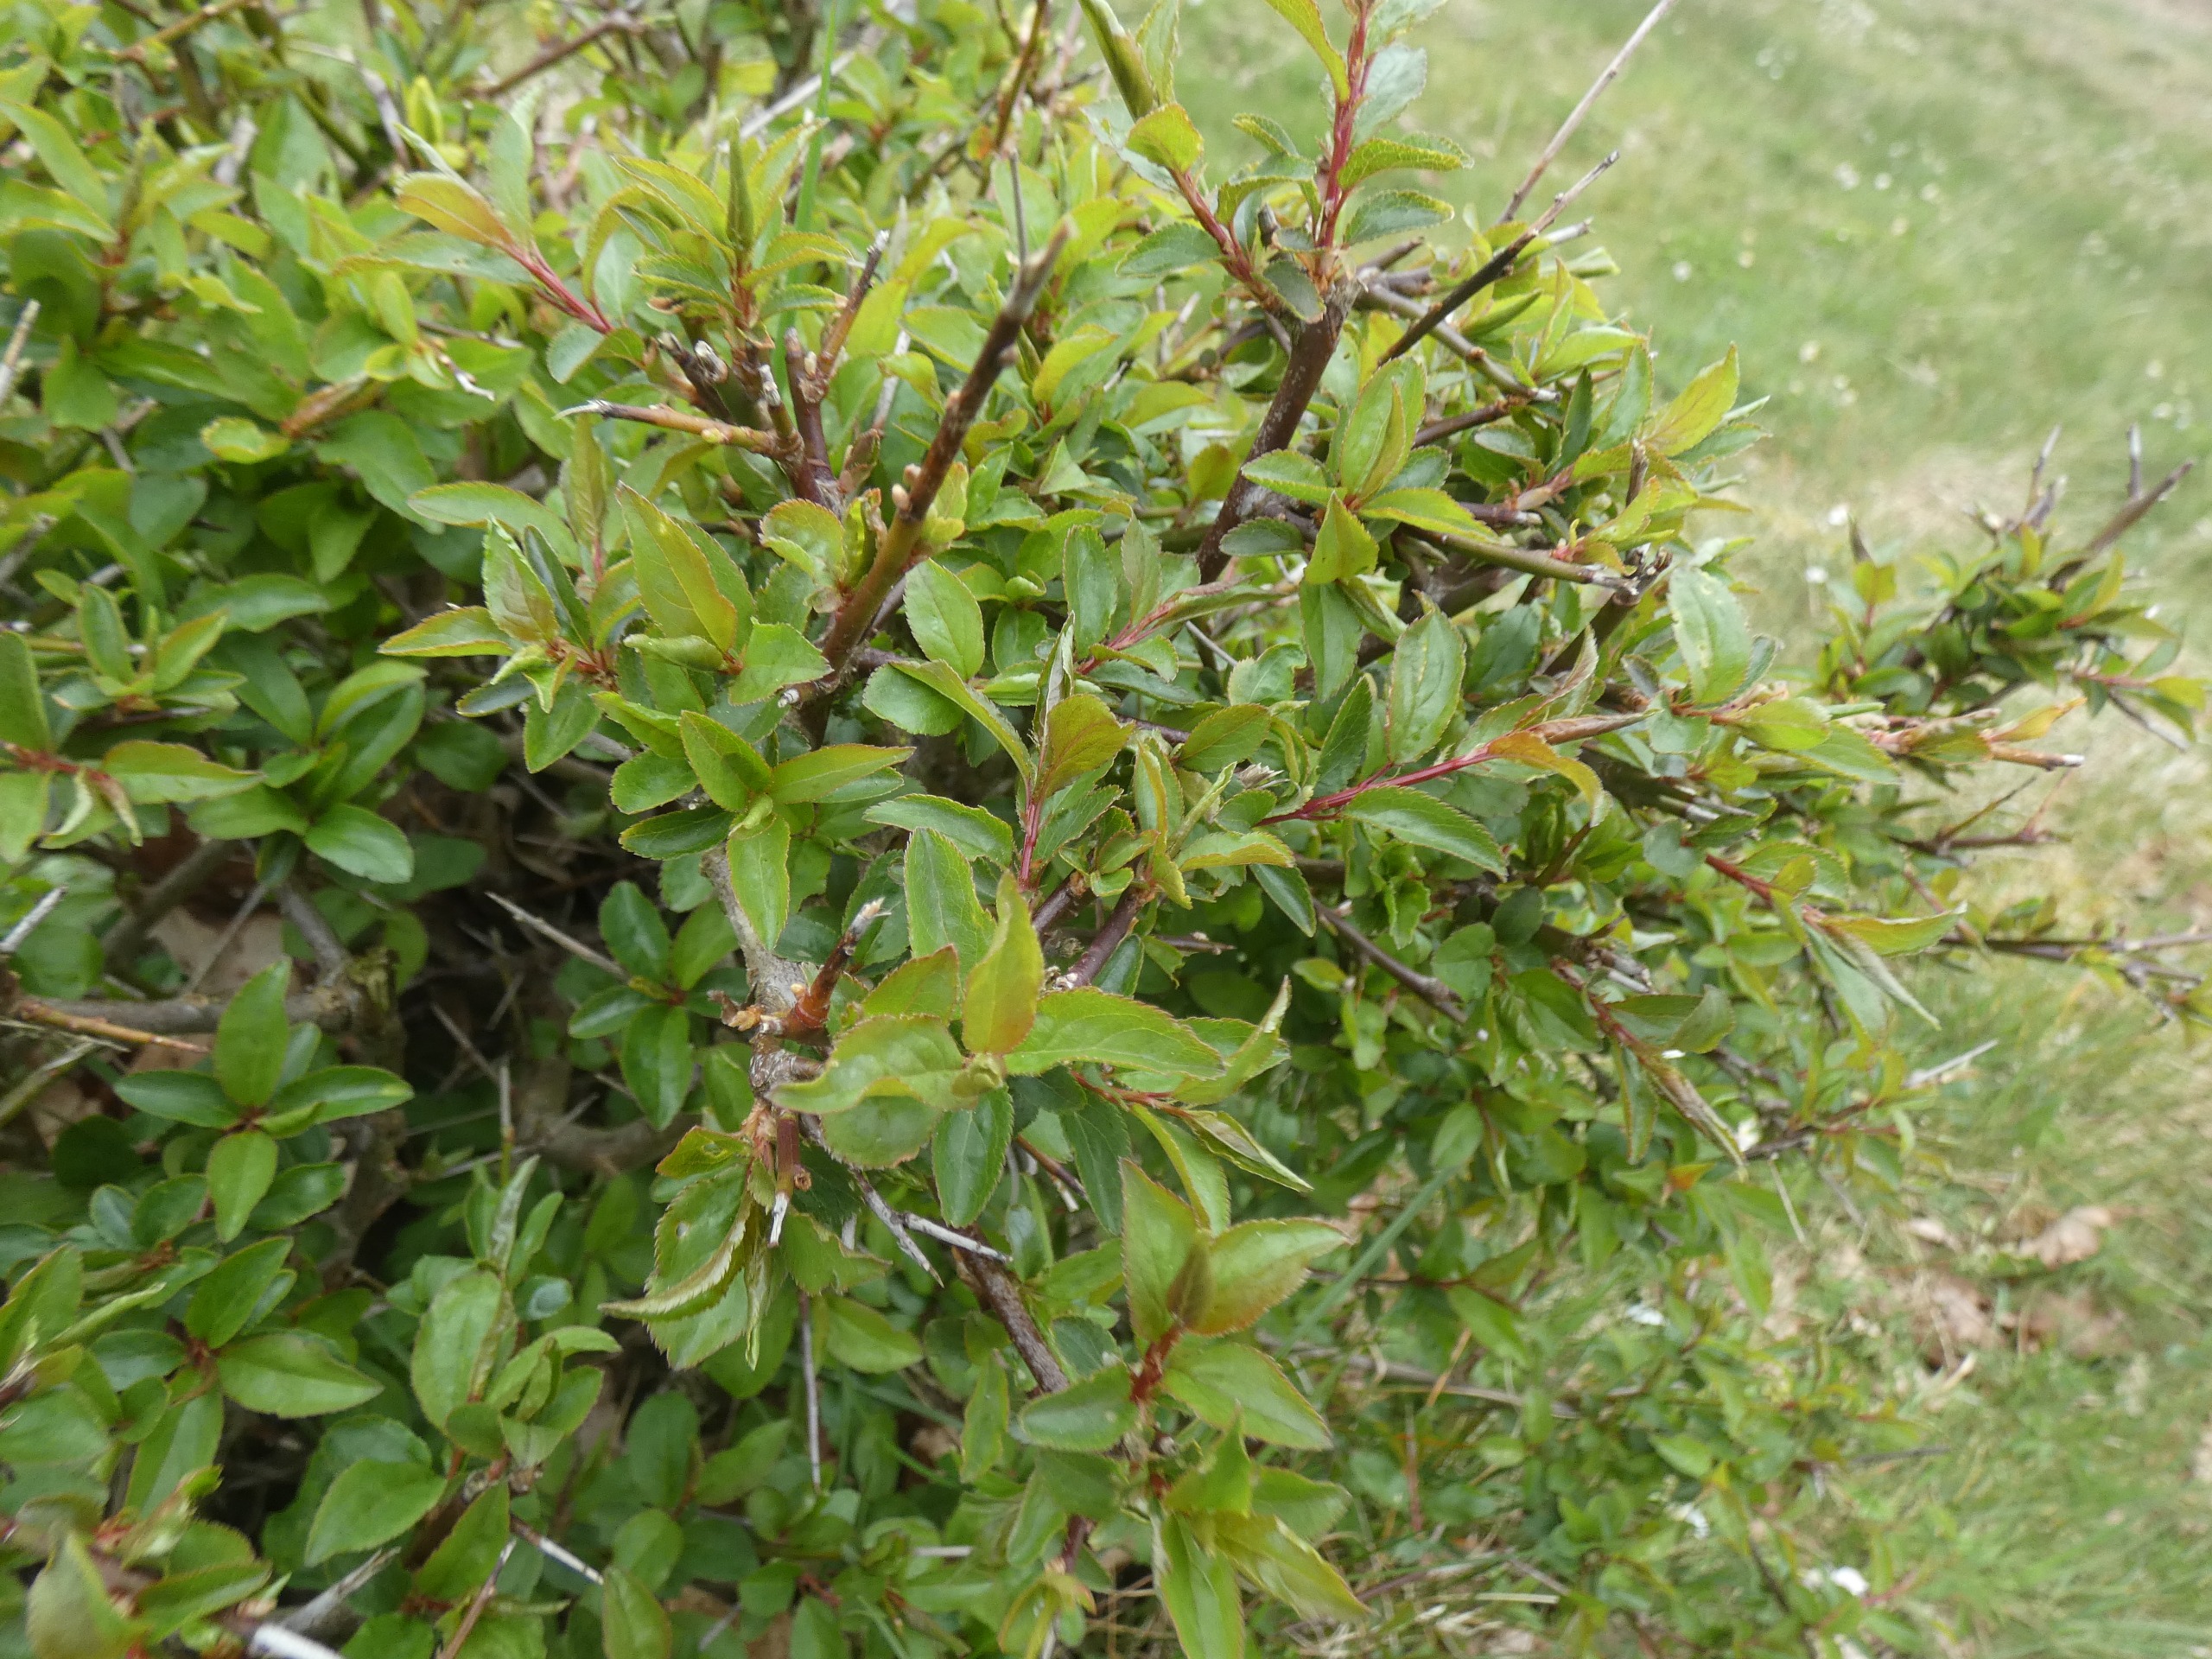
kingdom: Plantae
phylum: Tracheophyta
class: Magnoliopsida
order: Rosales
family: Rosaceae
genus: Prunus
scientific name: Prunus spinosa
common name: Slåen
